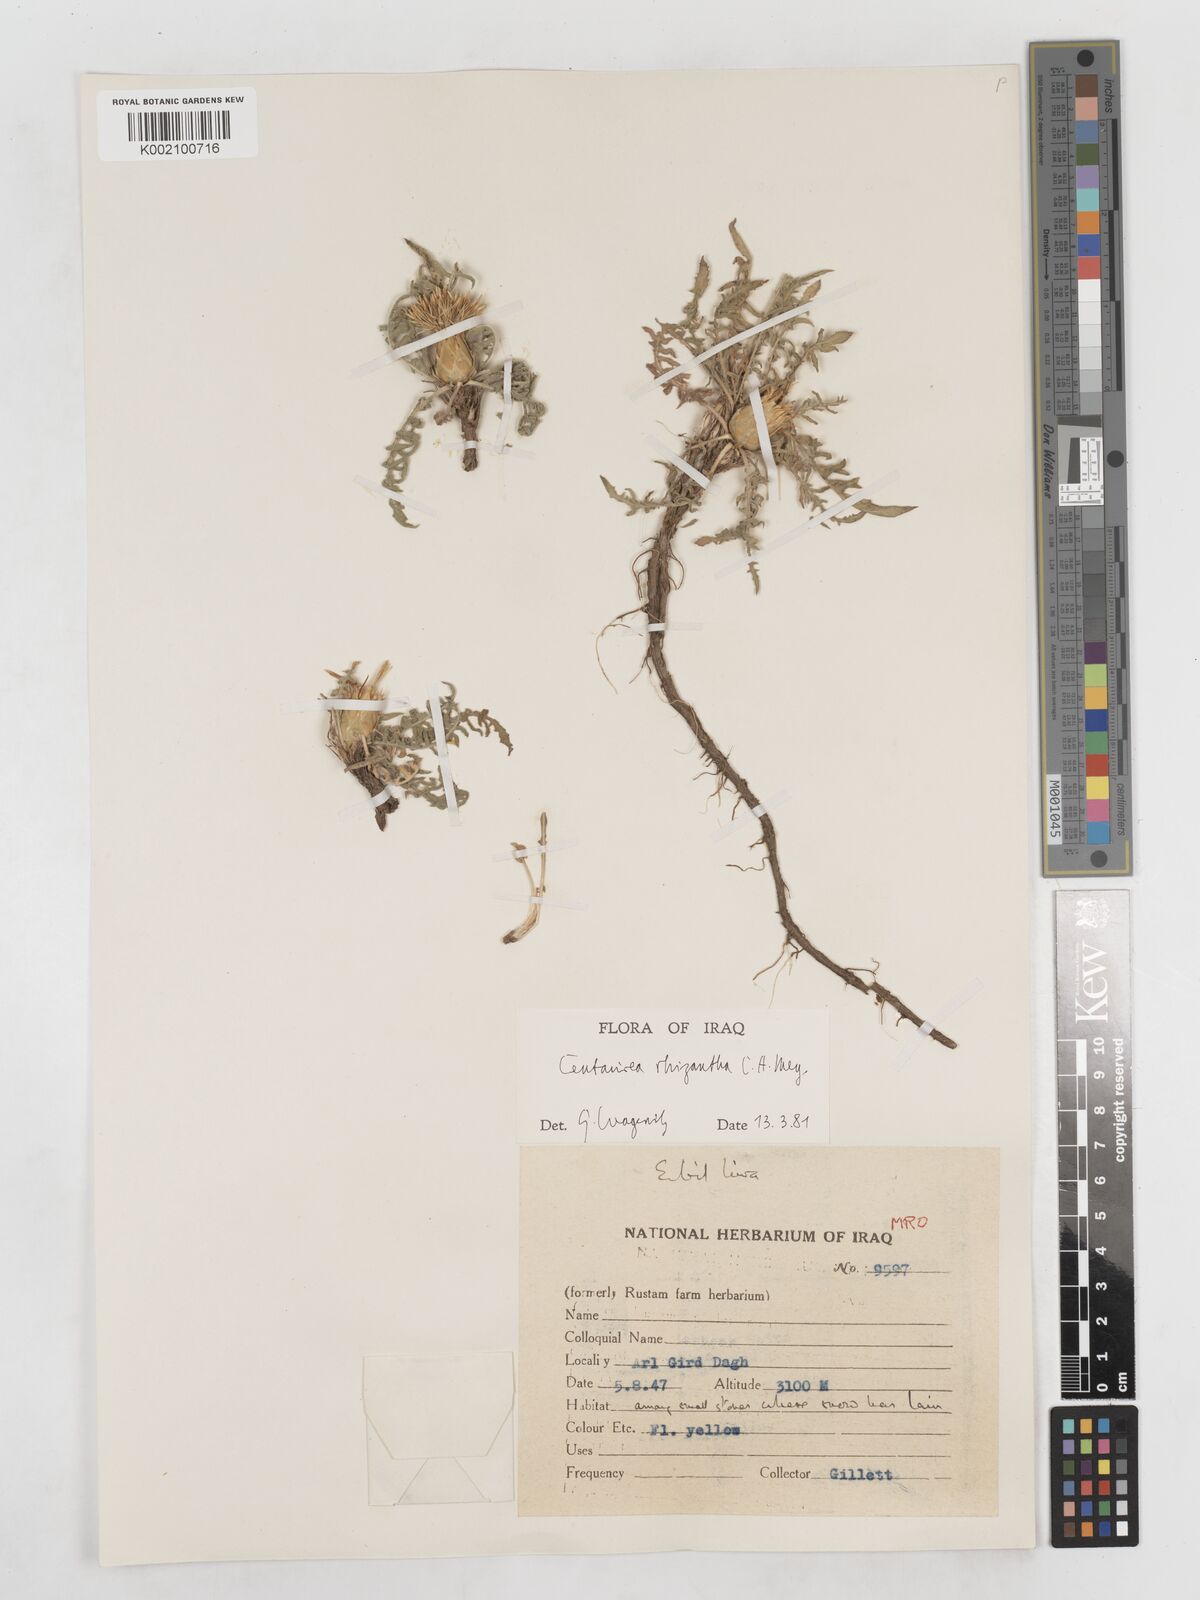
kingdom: Plantae
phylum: Tracheophyta
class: Magnoliopsida
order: Asterales
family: Asteraceae
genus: Centaurea
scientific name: Centaurea rhizantha
